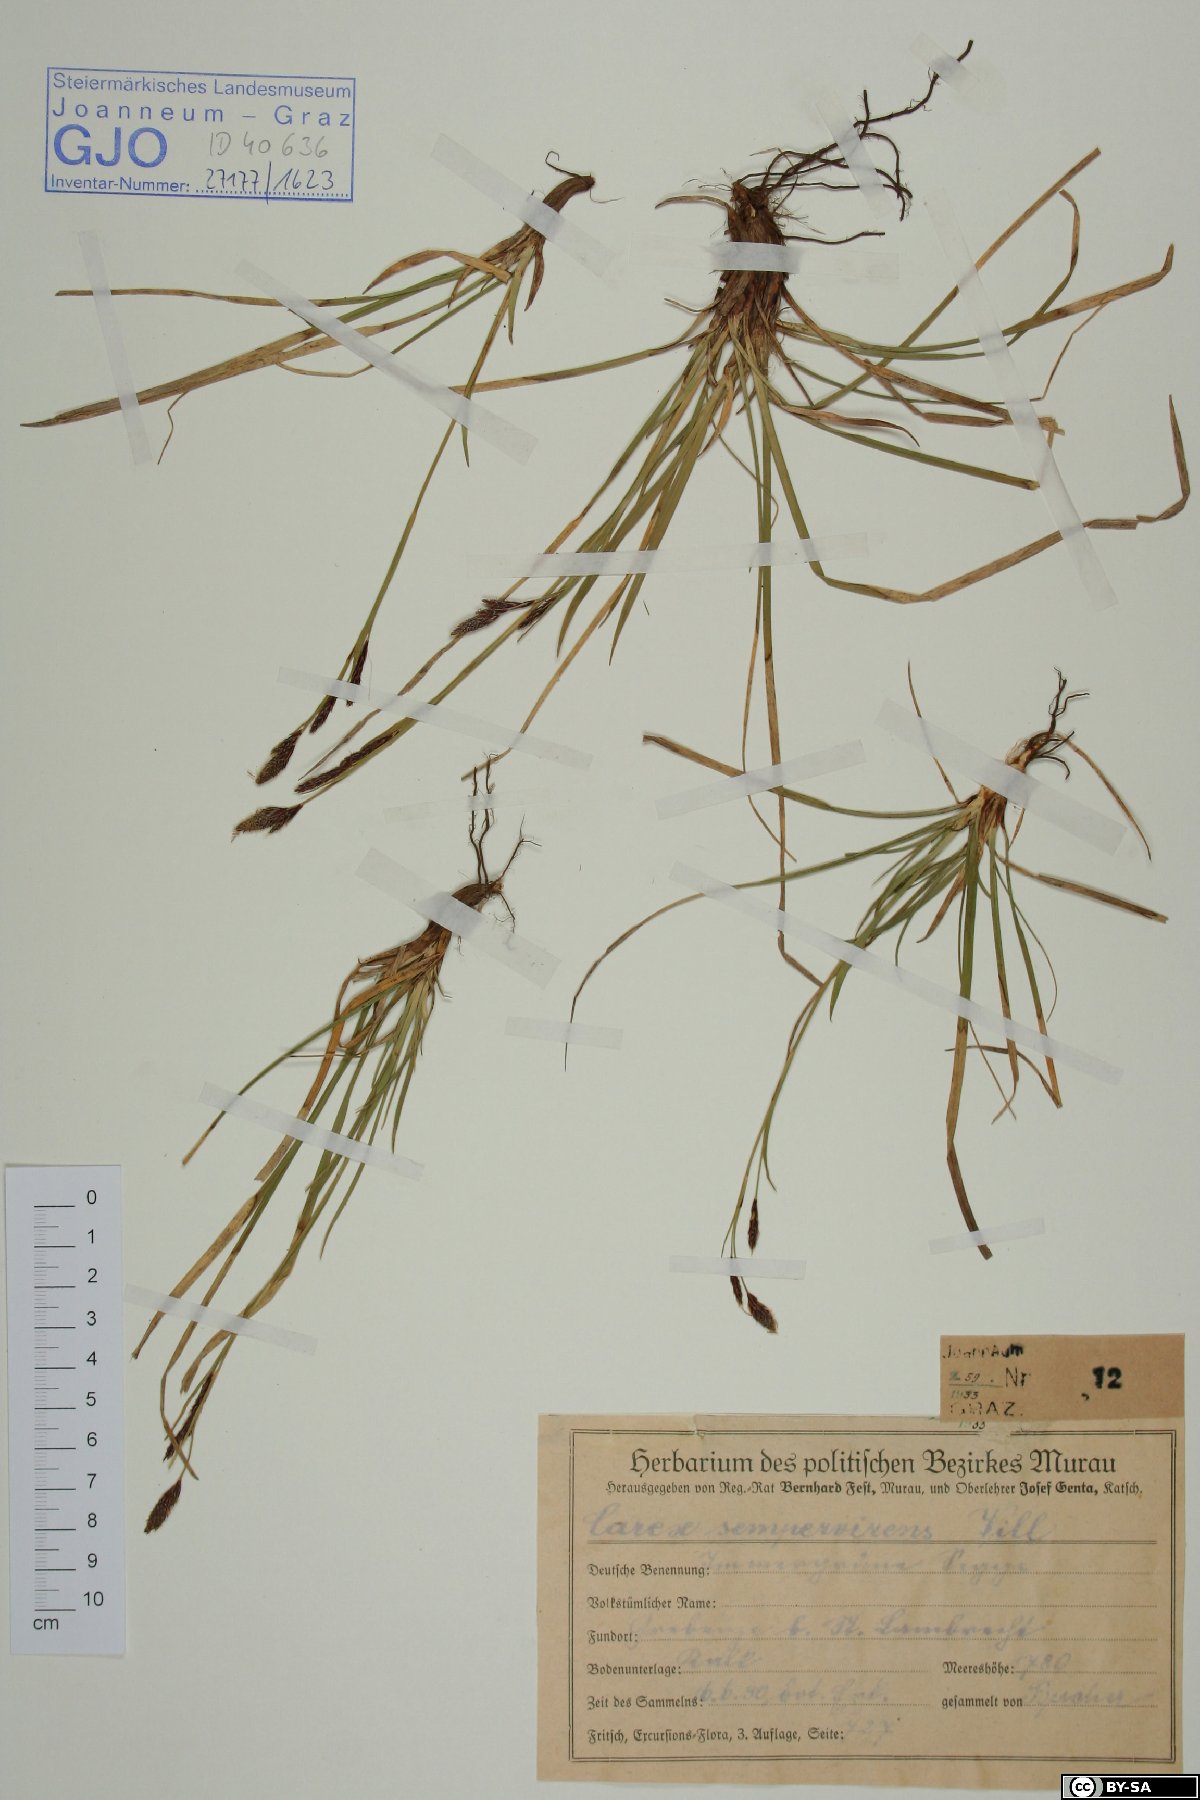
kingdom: Plantae
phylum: Tracheophyta
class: Liliopsida
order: Poales
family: Cyperaceae
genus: Carex
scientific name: Carex sempervirens
